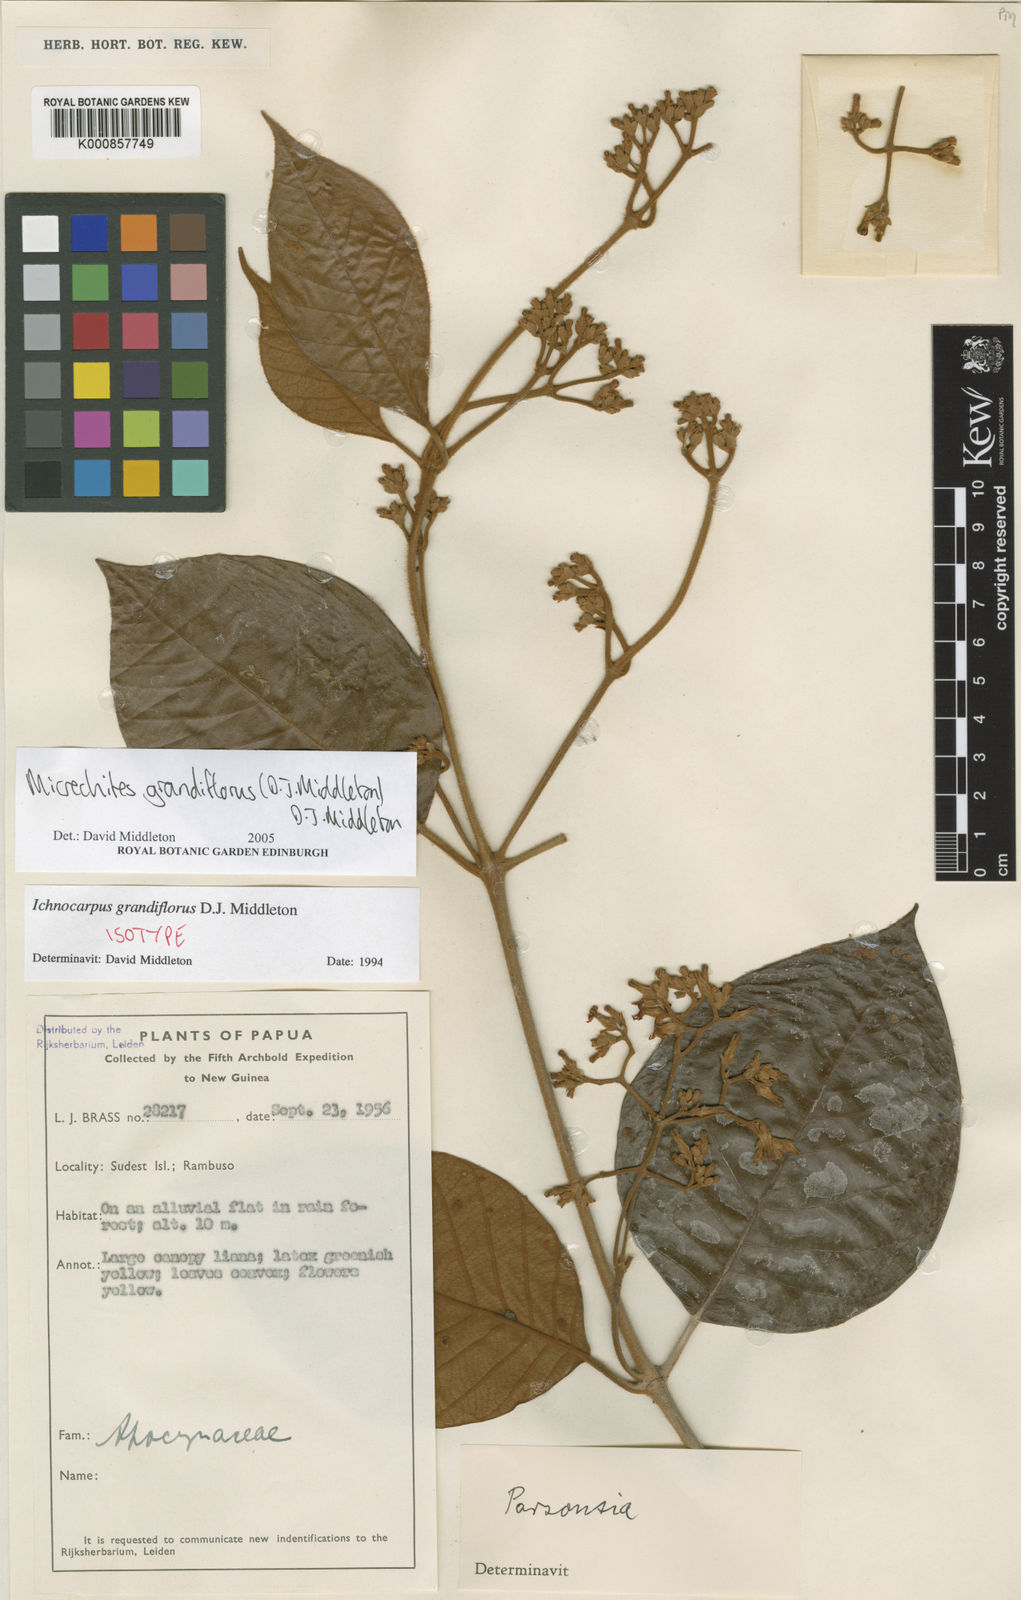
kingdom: Plantae
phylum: Tracheophyta
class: Magnoliopsida
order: Gentianales
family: Apocynaceae
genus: Micrechites
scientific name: Micrechites grandiflorus
